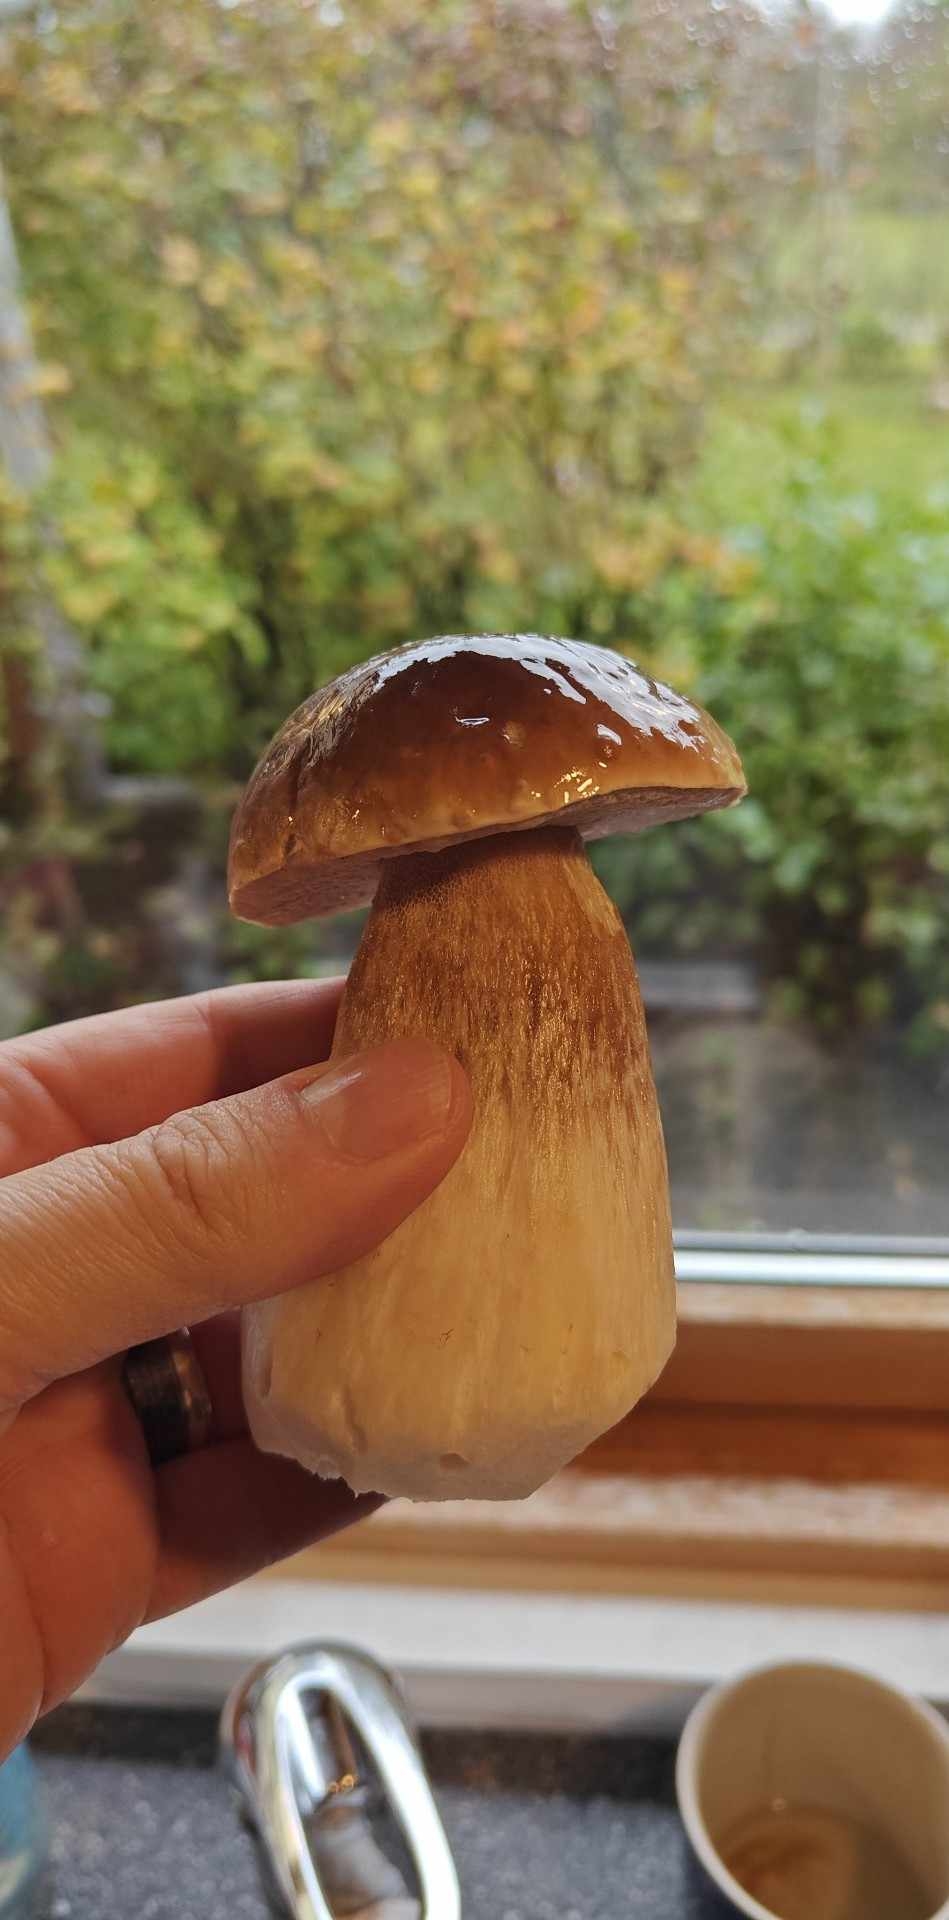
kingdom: Fungi
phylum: Basidiomycota
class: Agaricomycetes
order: Boletales
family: Boletaceae
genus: Boletus
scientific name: Boletus edulis
